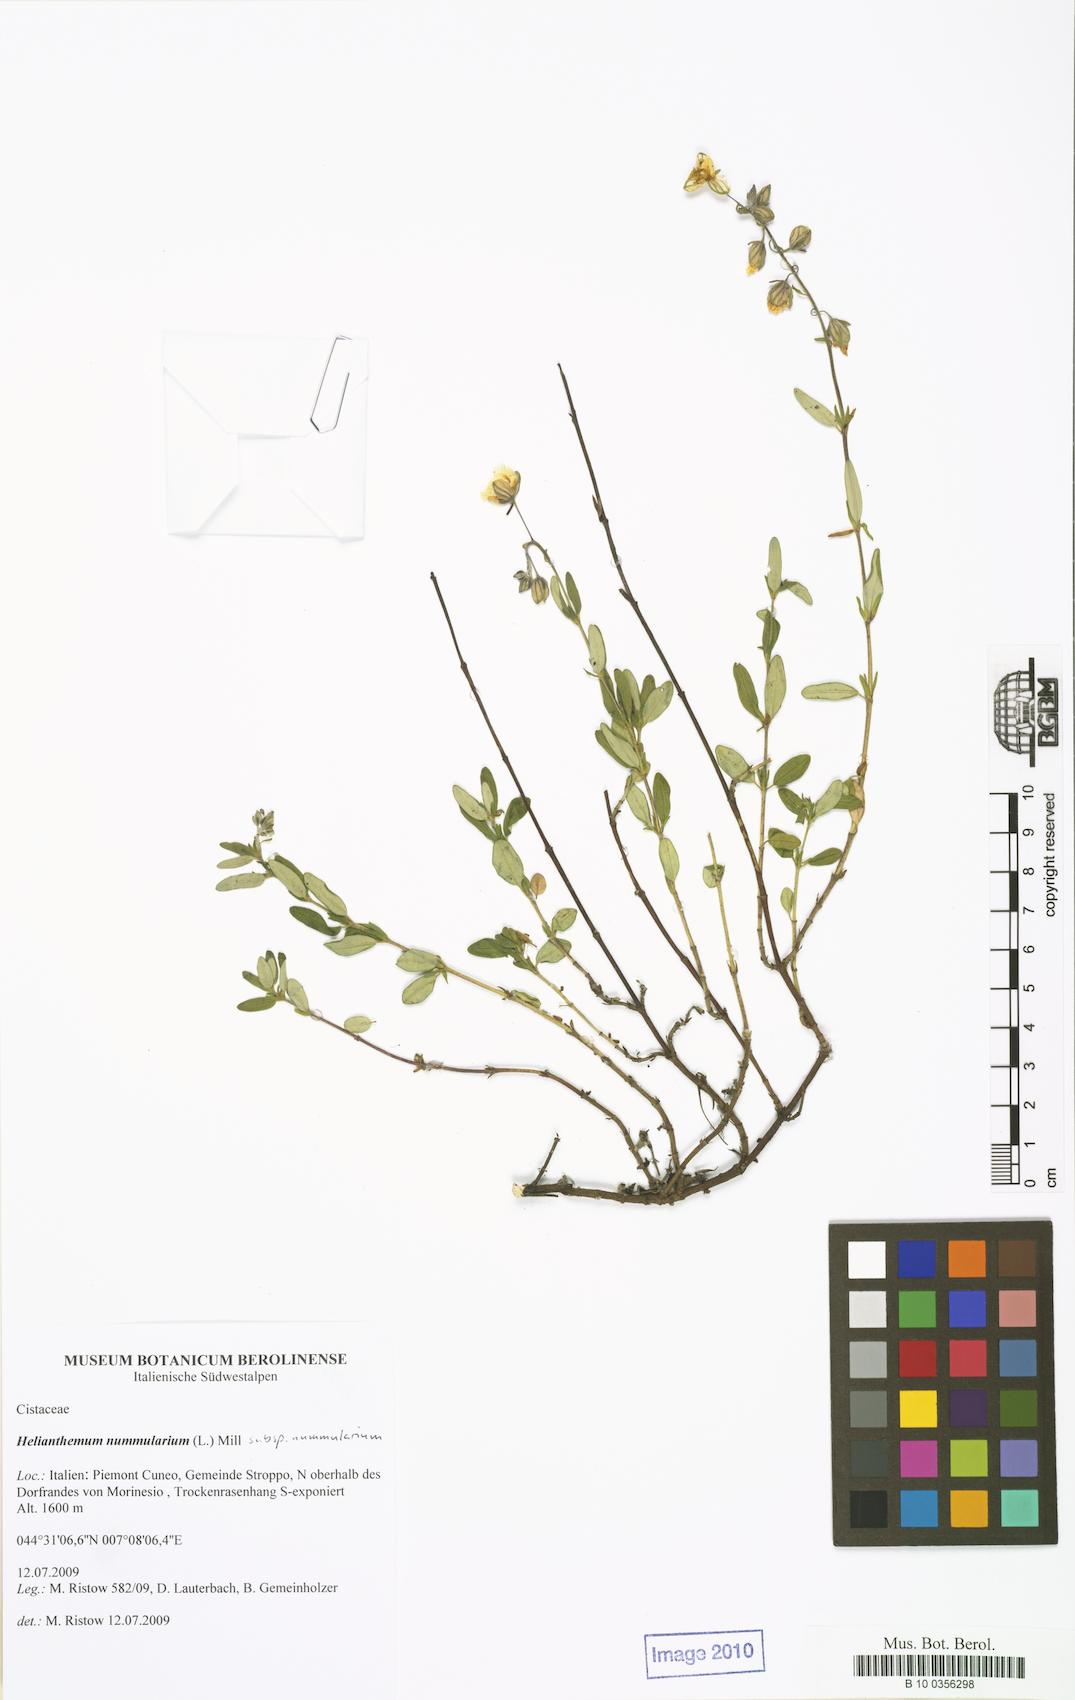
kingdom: Plantae
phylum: Tracheophyta
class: Magnoliopsida
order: Malvales
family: Cistaceae
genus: Helianthemum
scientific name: Helianthemum nummularium
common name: Common rock-rose
